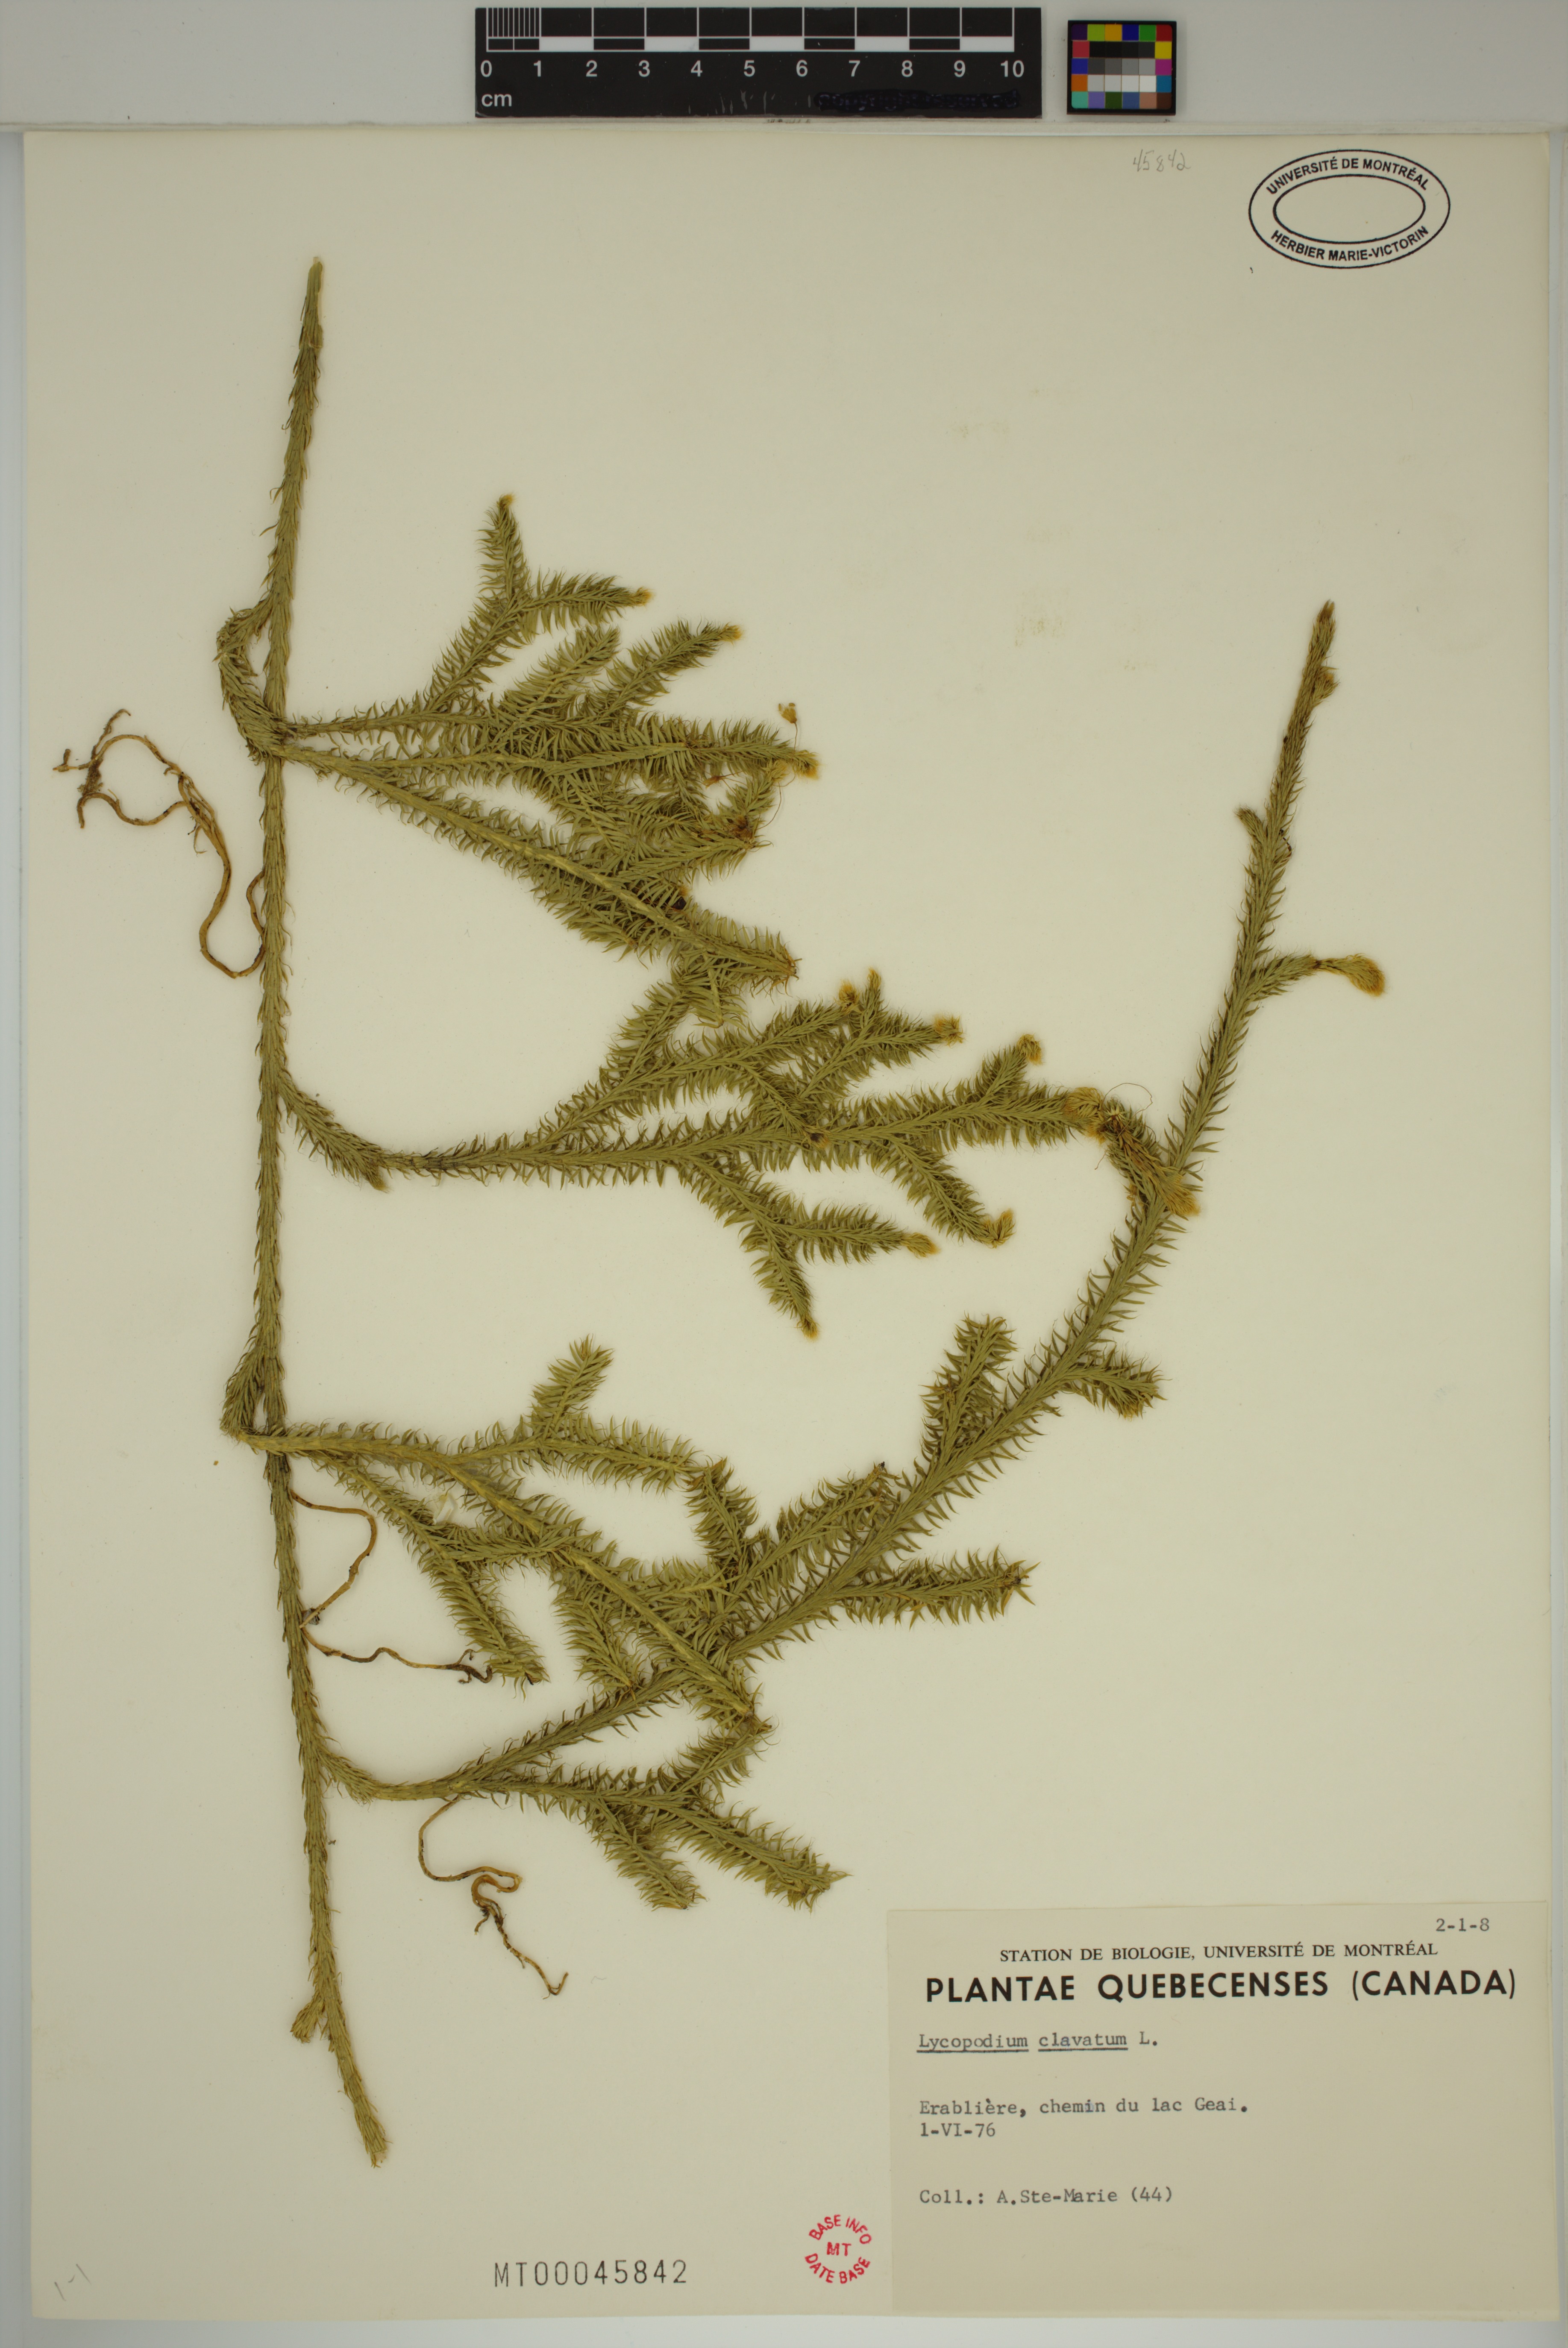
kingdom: Plantae
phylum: Tracheophyta
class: Lycopodiopsida
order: Lycopodiales
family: Lycopodiaceae
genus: Lycopodium
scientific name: Lycopodium clavatum
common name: Stag's-horn clubmoss
